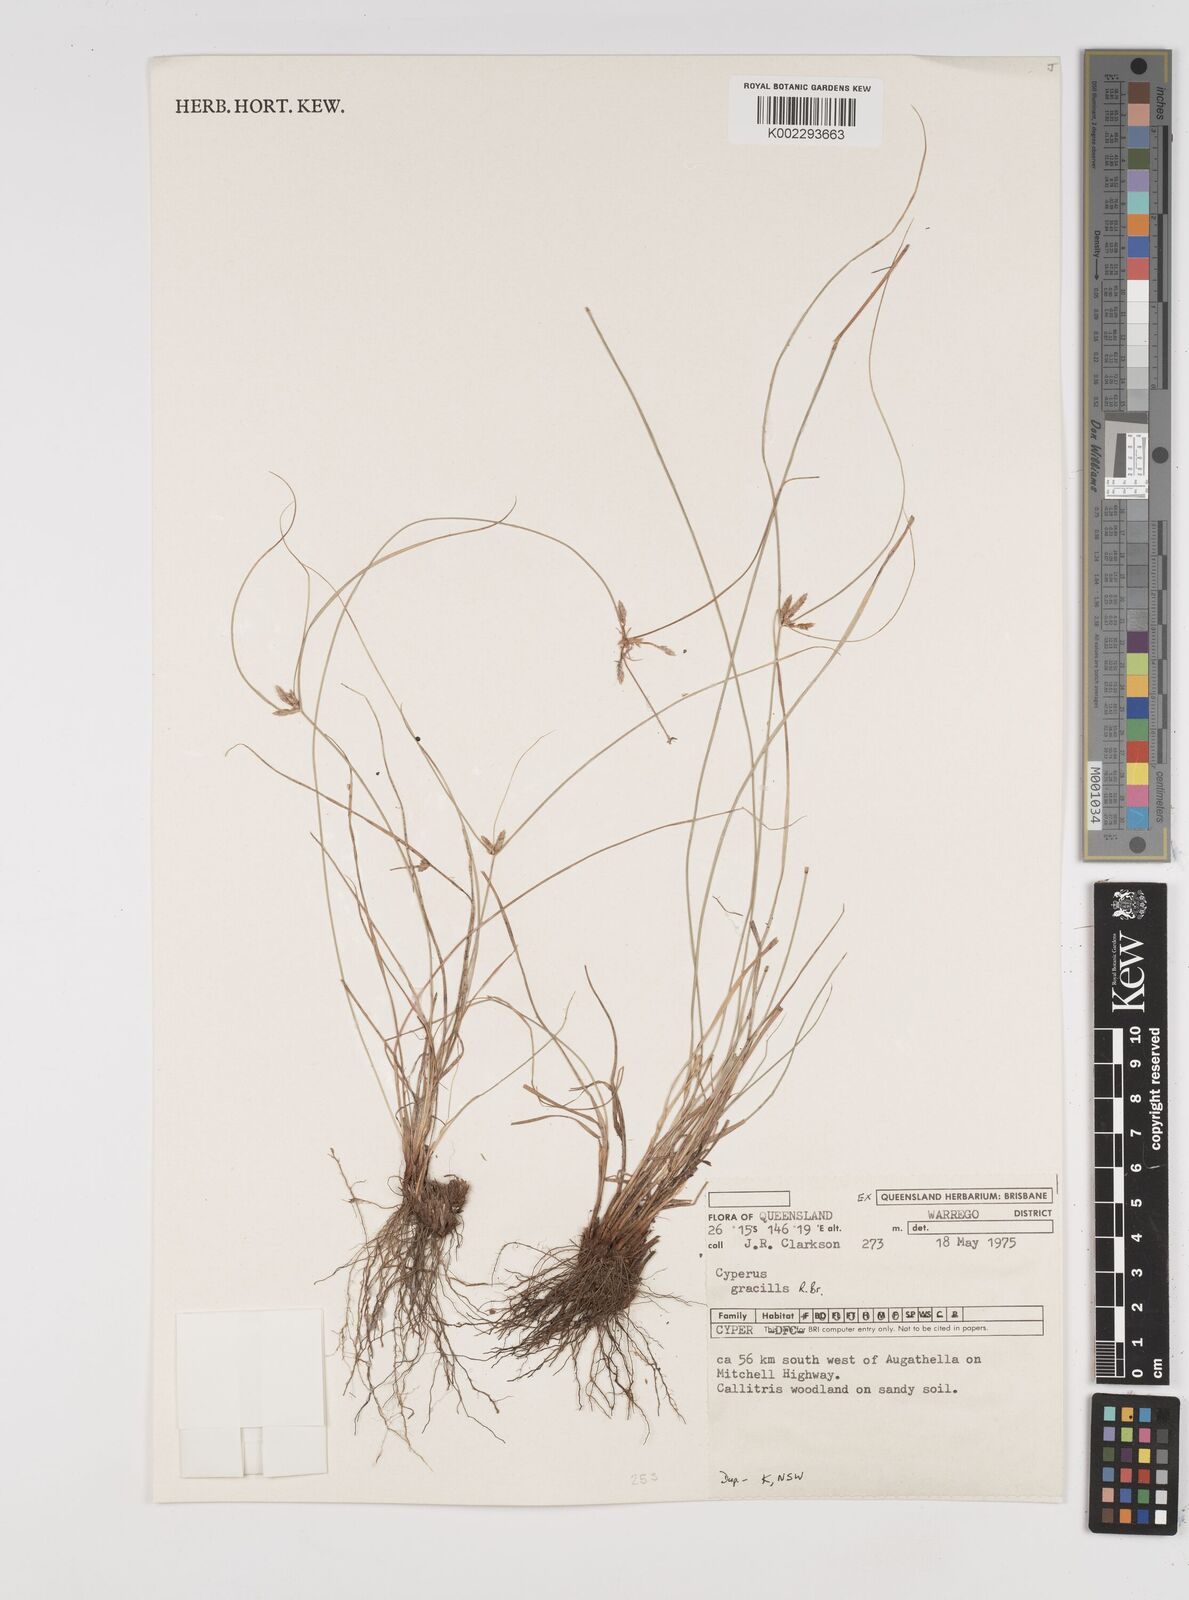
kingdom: Plantae
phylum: Tracheophyta
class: Liliopsida
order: Poales
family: Cyperaceae
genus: Cyperus
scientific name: Cyperus gracilis
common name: Slimjim flatsedge
